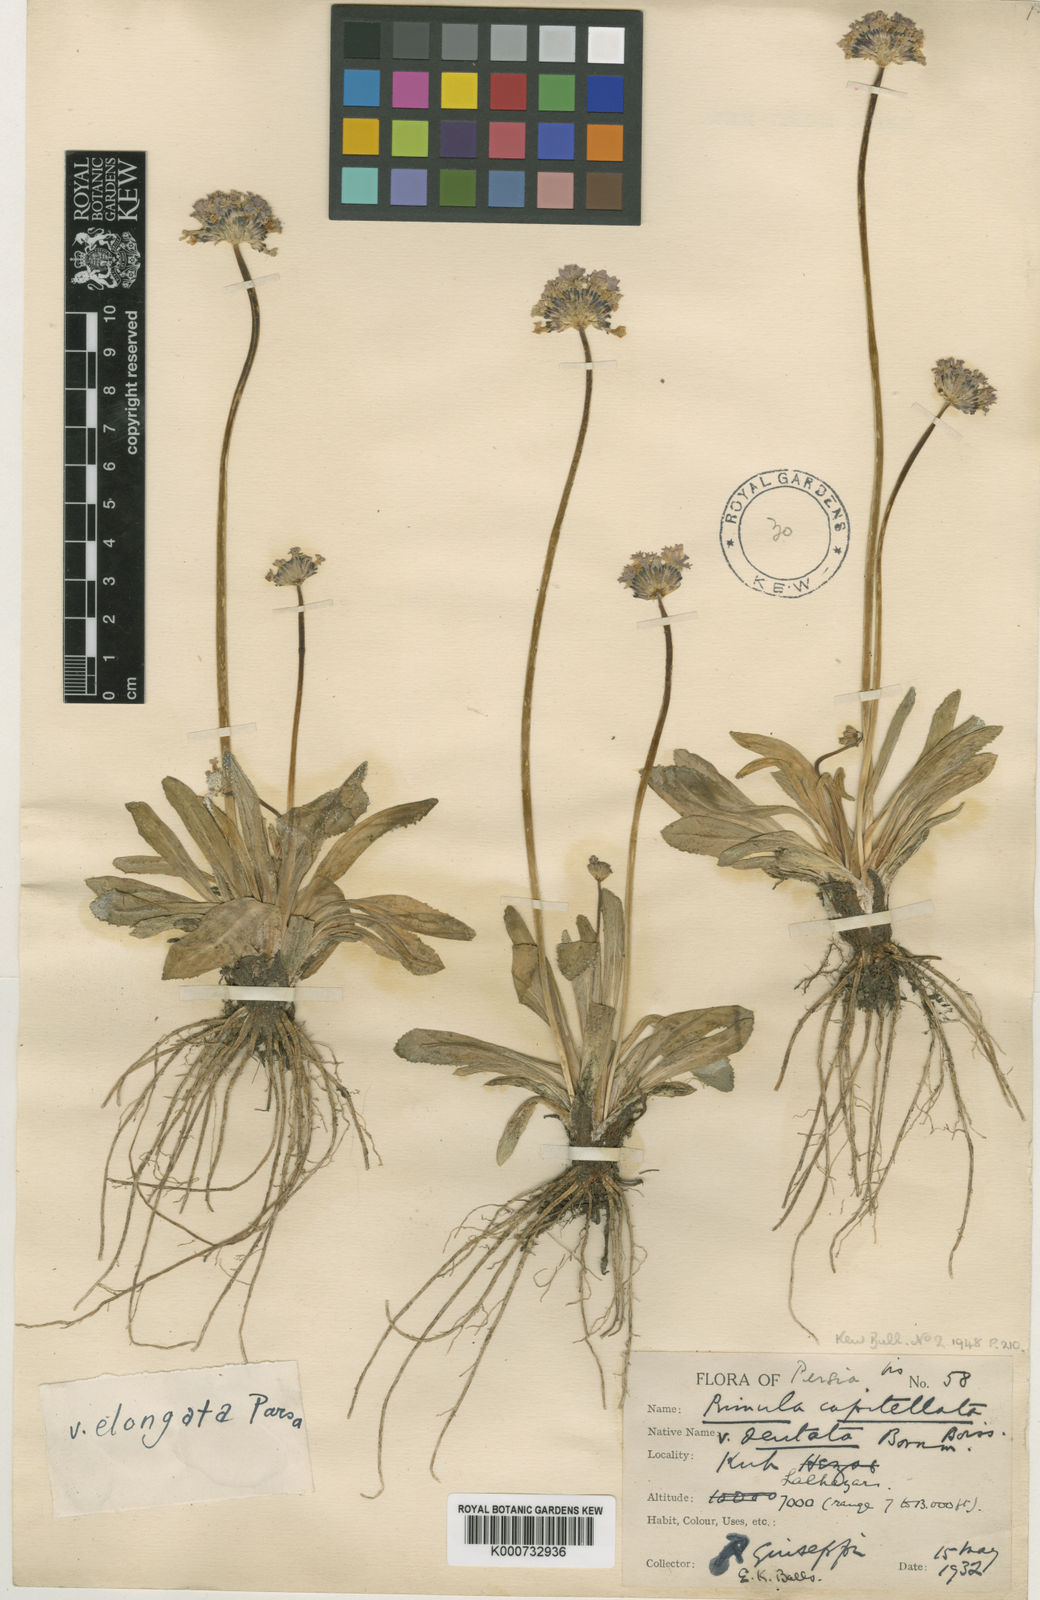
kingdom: Plantae
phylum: Tracheophyta
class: Magnoliopsida
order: Ericales
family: Primulaceae
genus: Primula
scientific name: Primula capitellata
